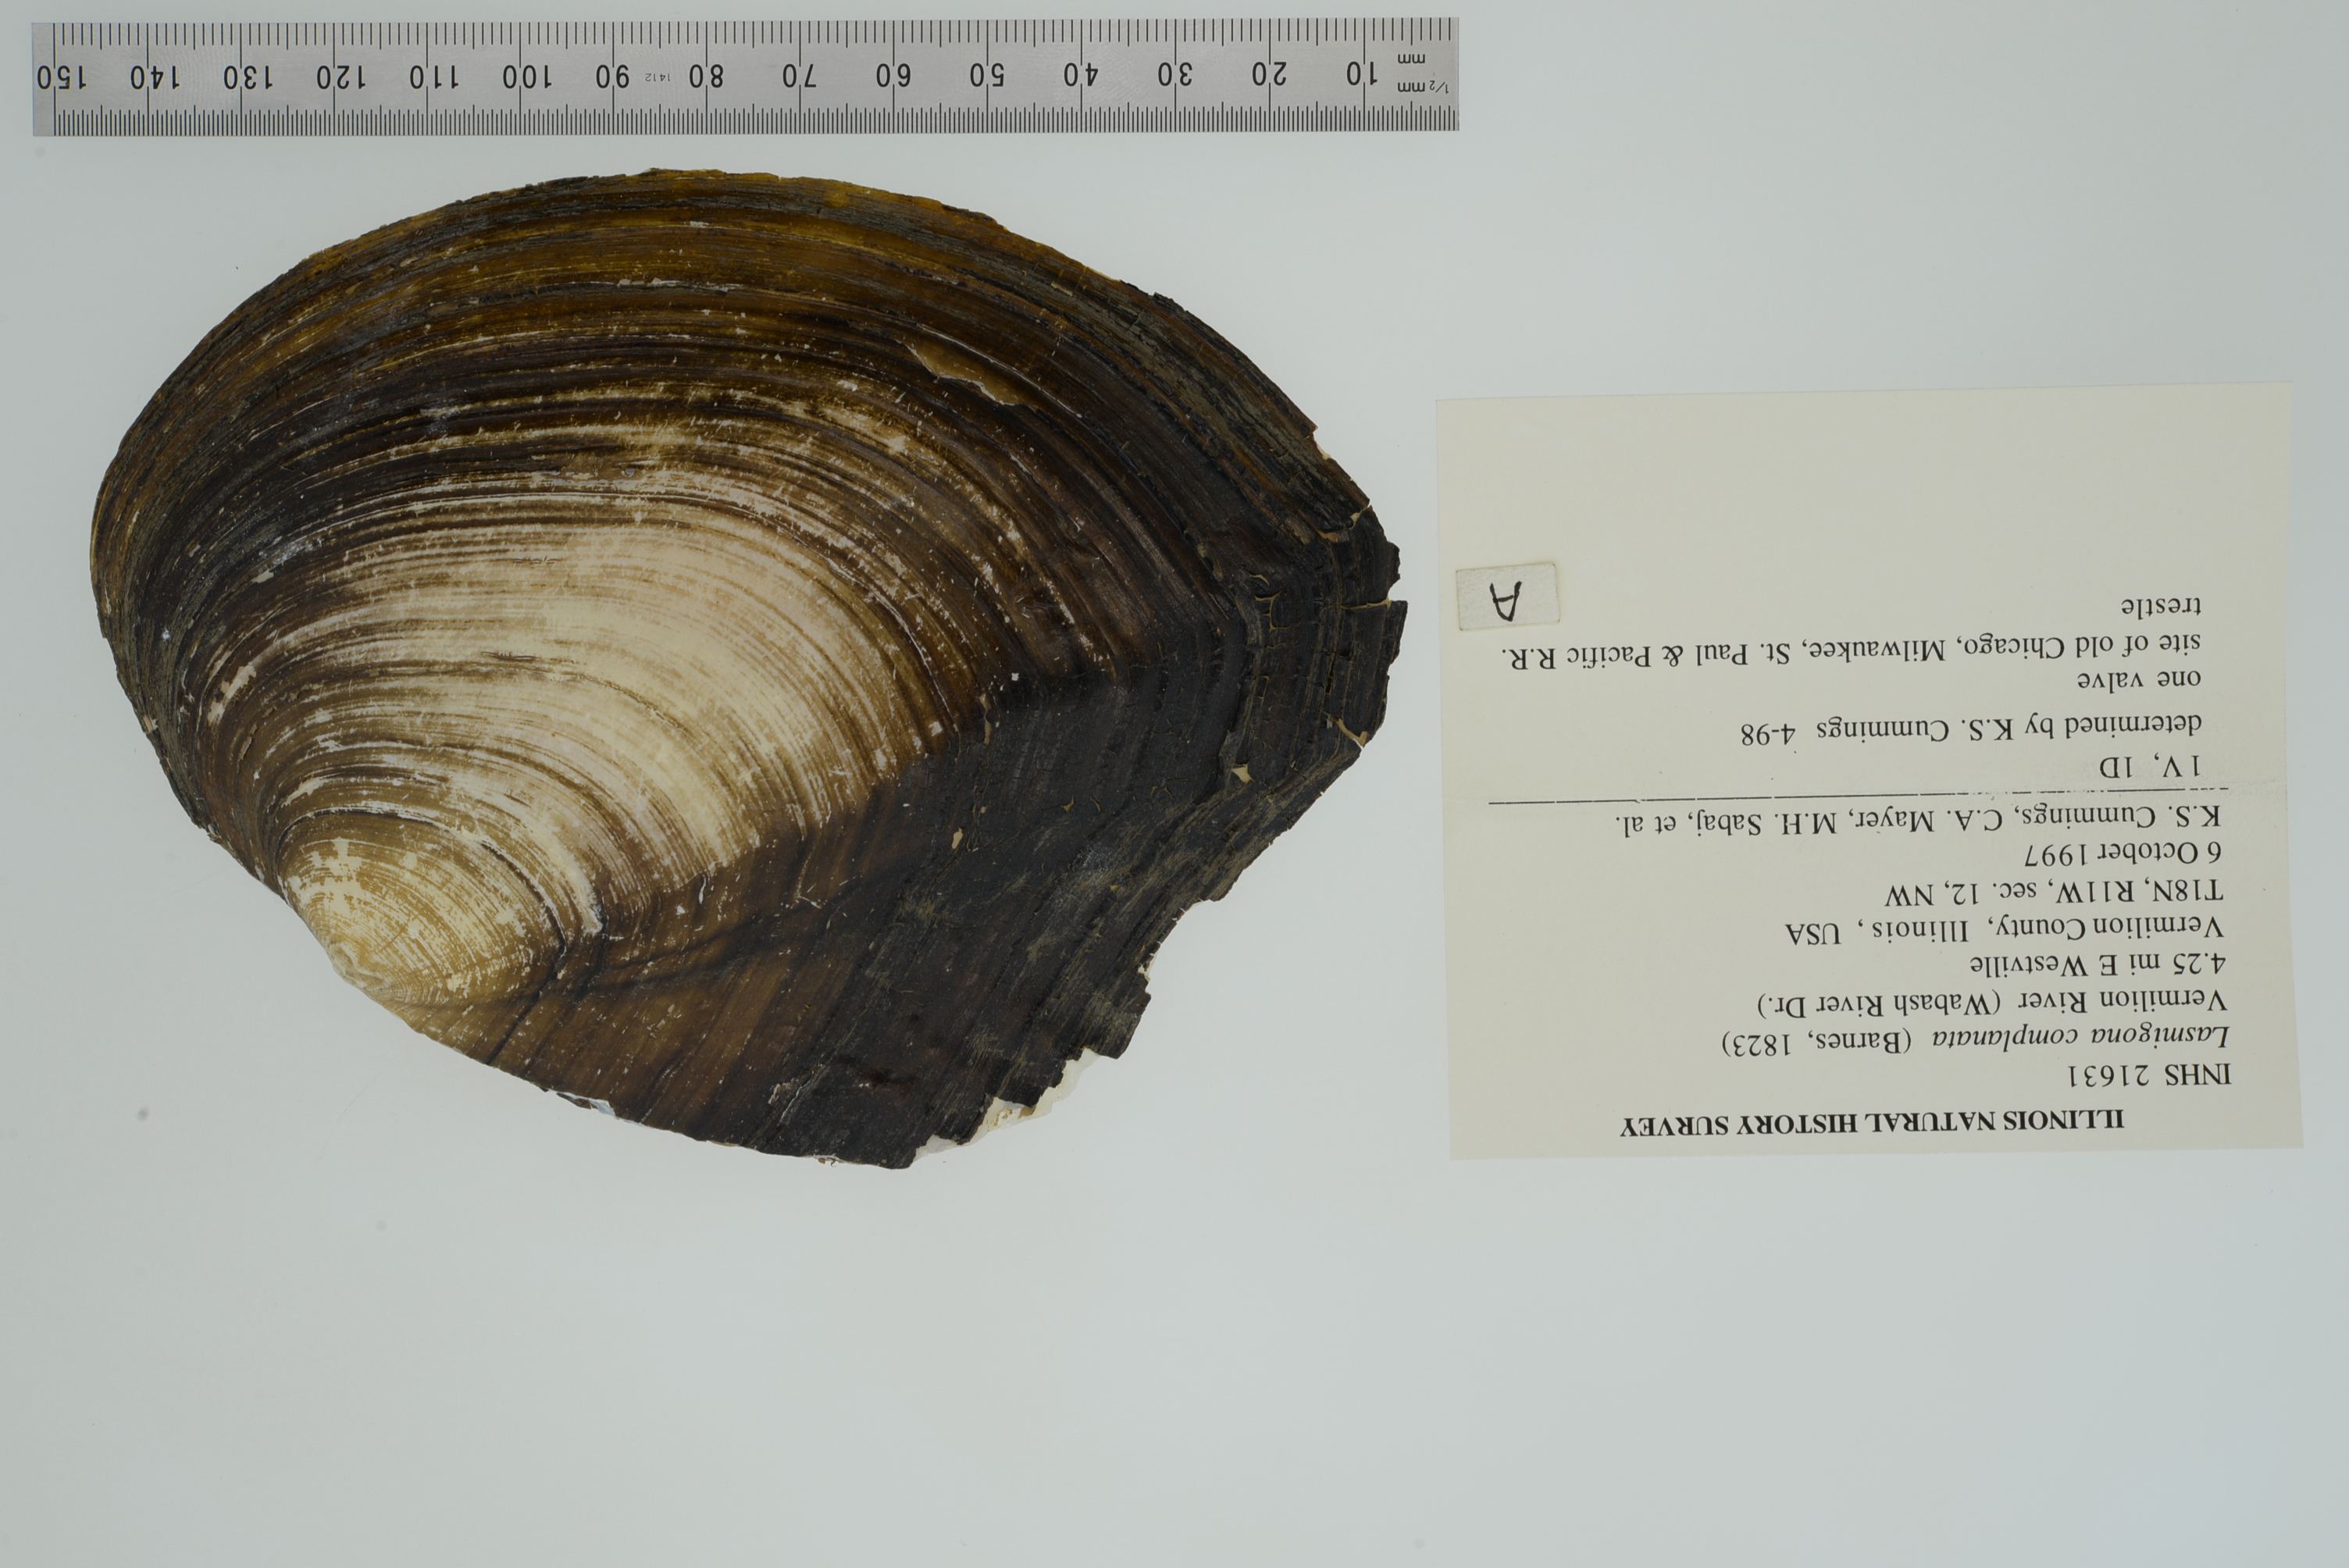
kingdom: Animalia
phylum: Mollusca
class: Bivalvia
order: Unionida
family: Unionidae
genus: Lasmigona
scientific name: Lasmigona complanata
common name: White heelsplitter
